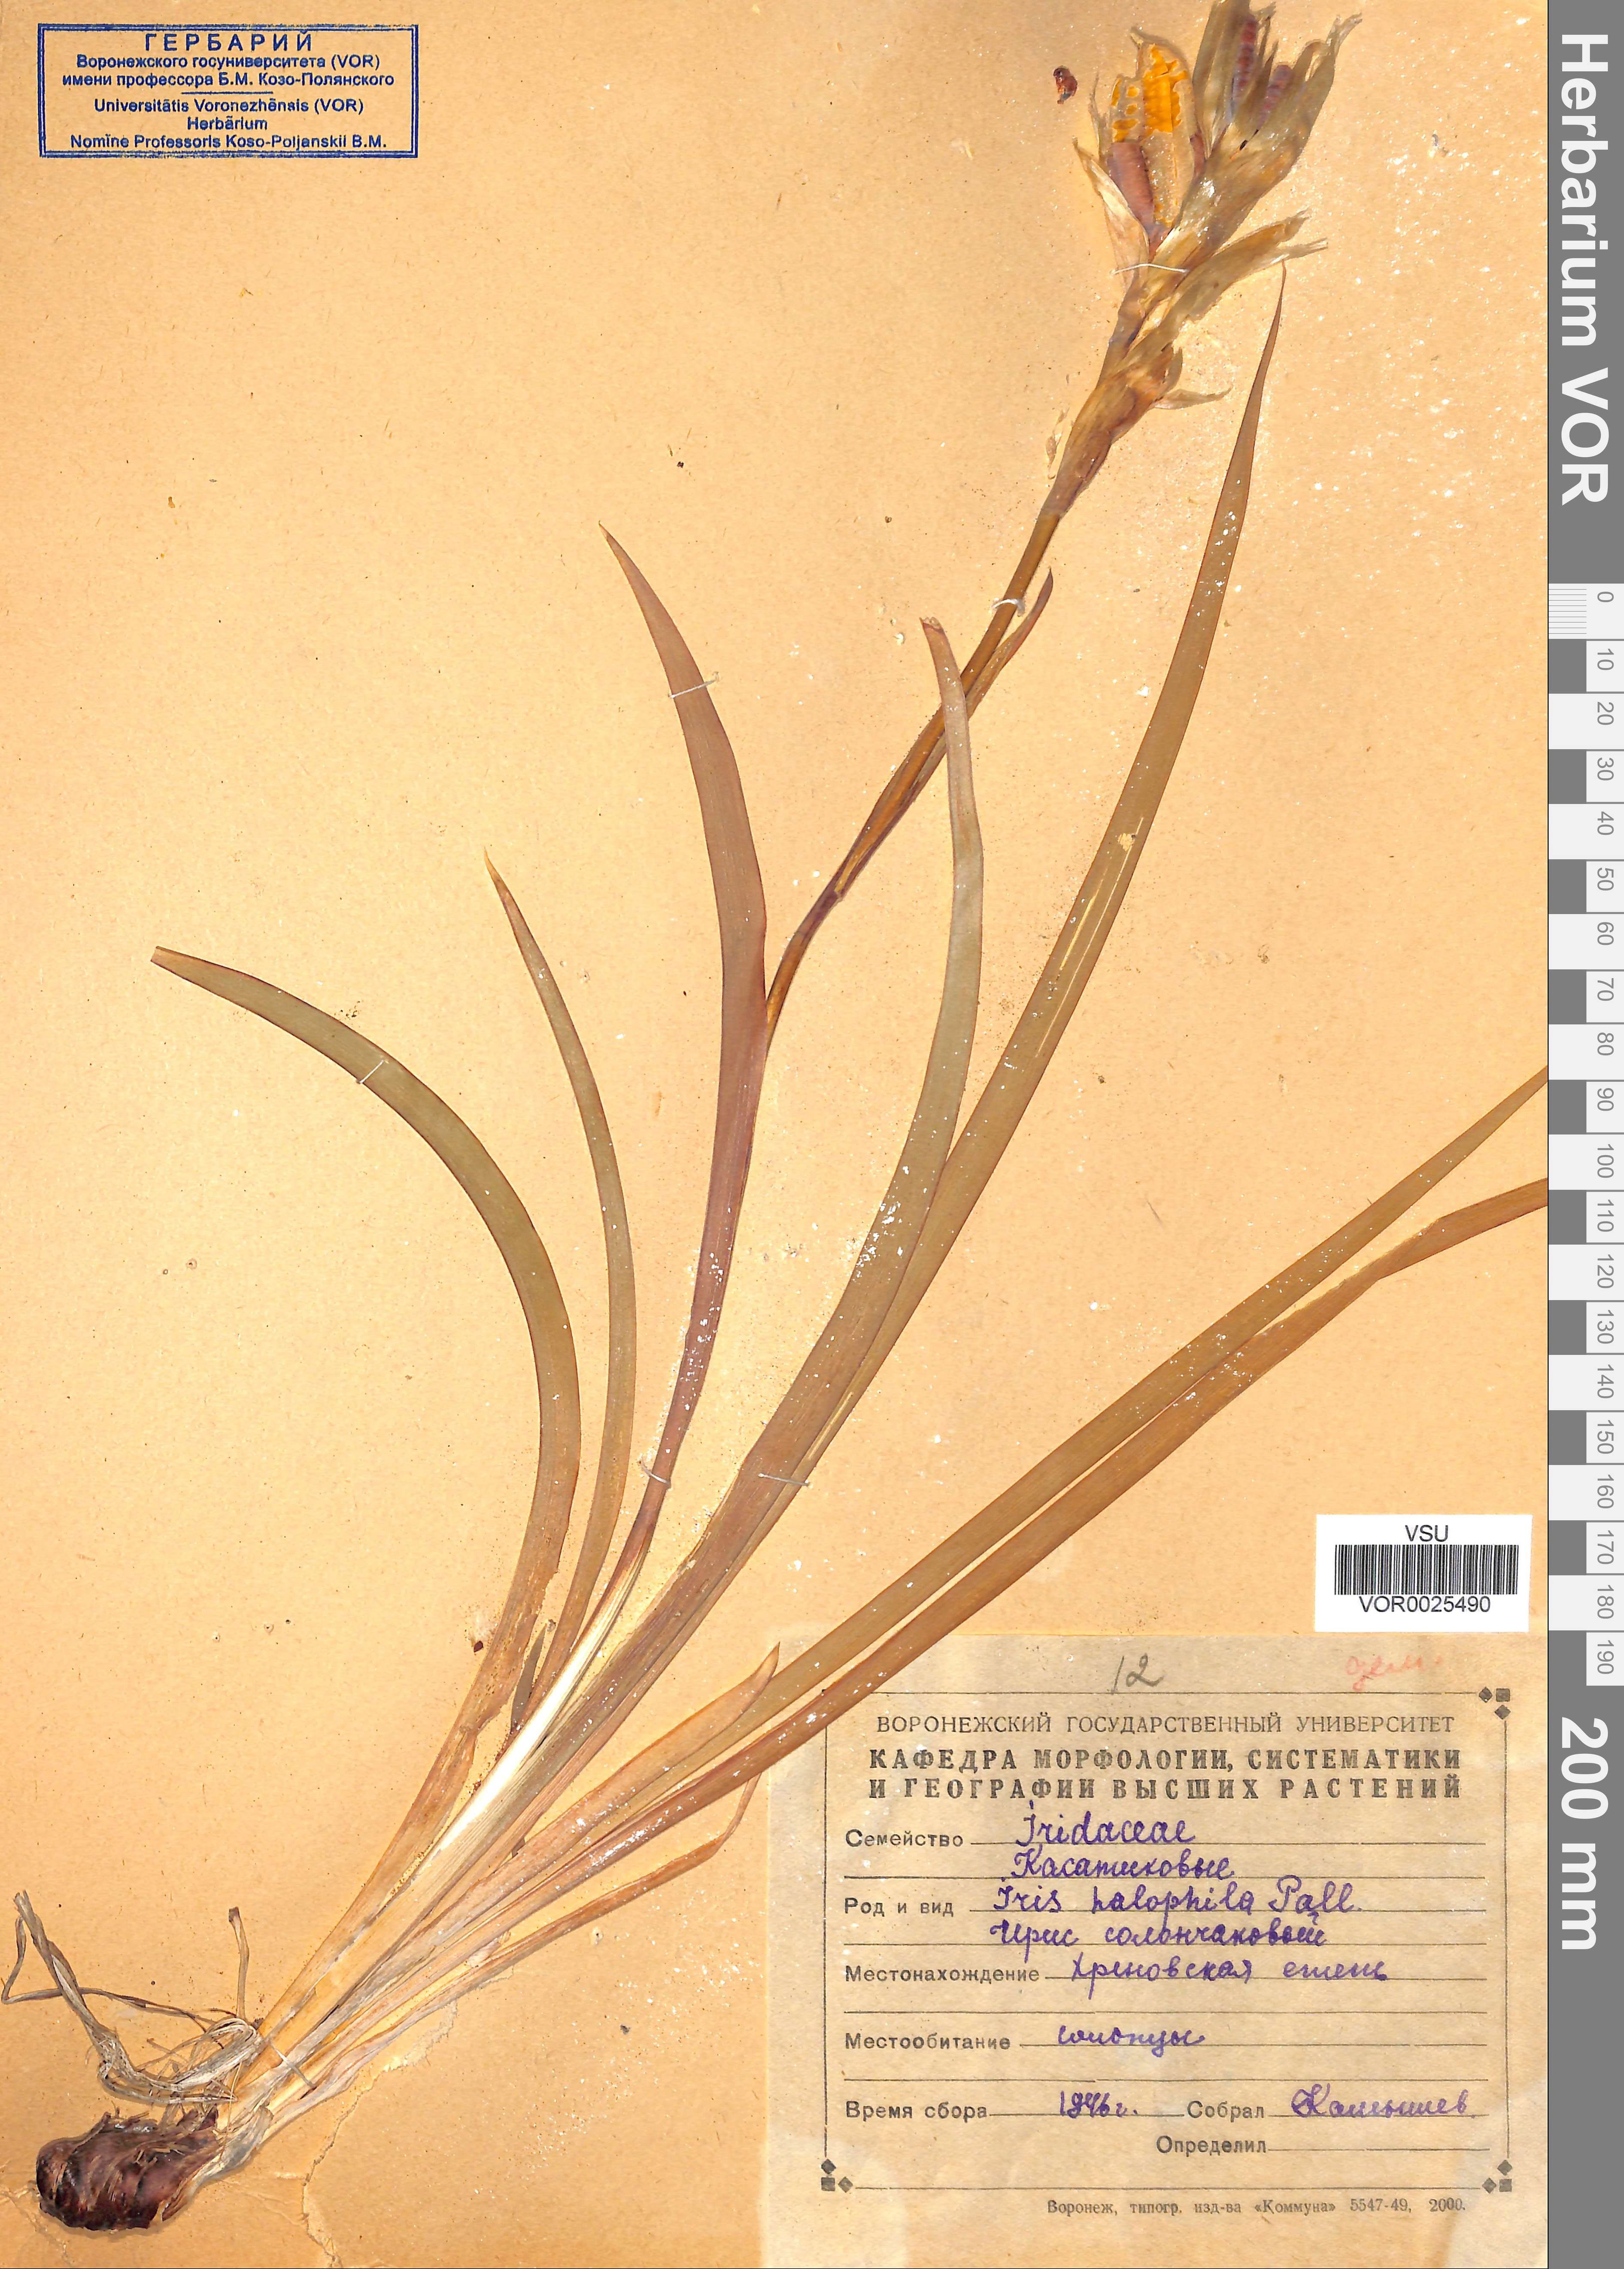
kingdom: Plantae
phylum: Tracheophyta
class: Liliopsida
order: Asparagales
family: Iridaceae
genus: Iris
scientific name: Iris halophila
